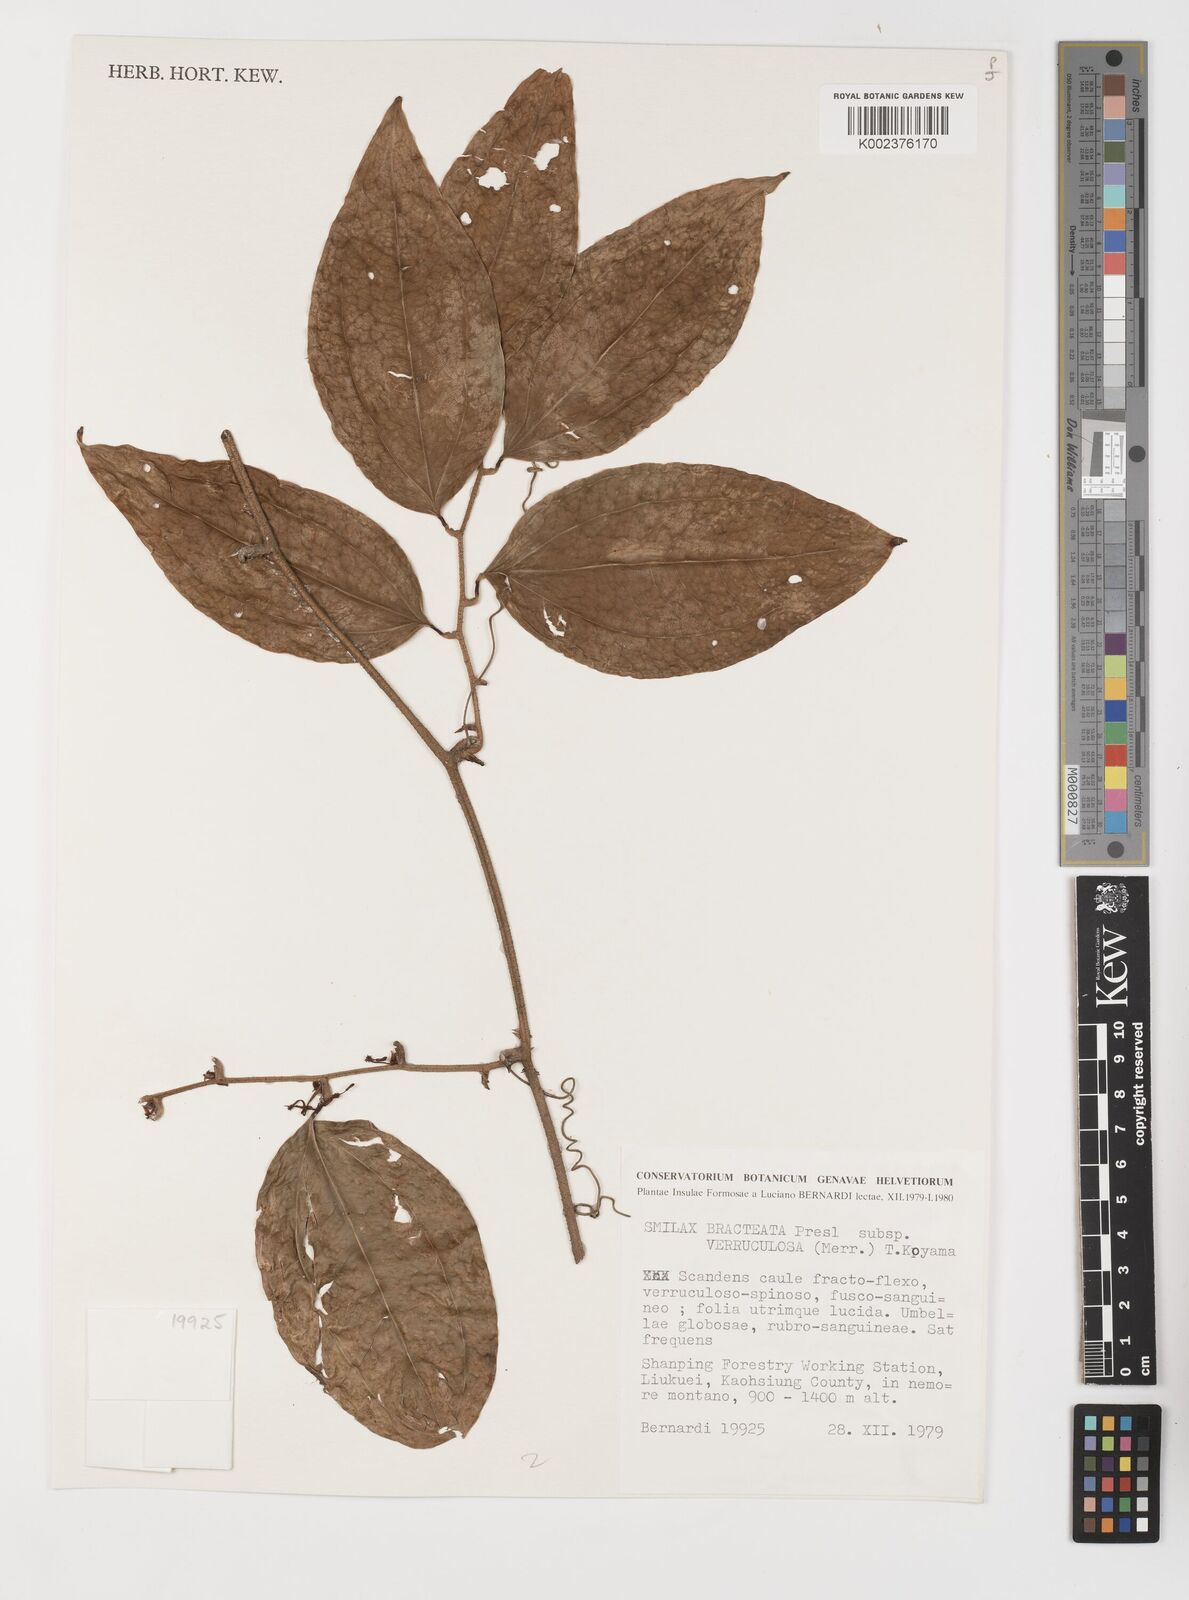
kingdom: Plantae
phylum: Tracheophyta
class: Liliopsida
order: Liliales
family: Smilacaceae
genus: Smilax
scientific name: Smilax aspericaulis
